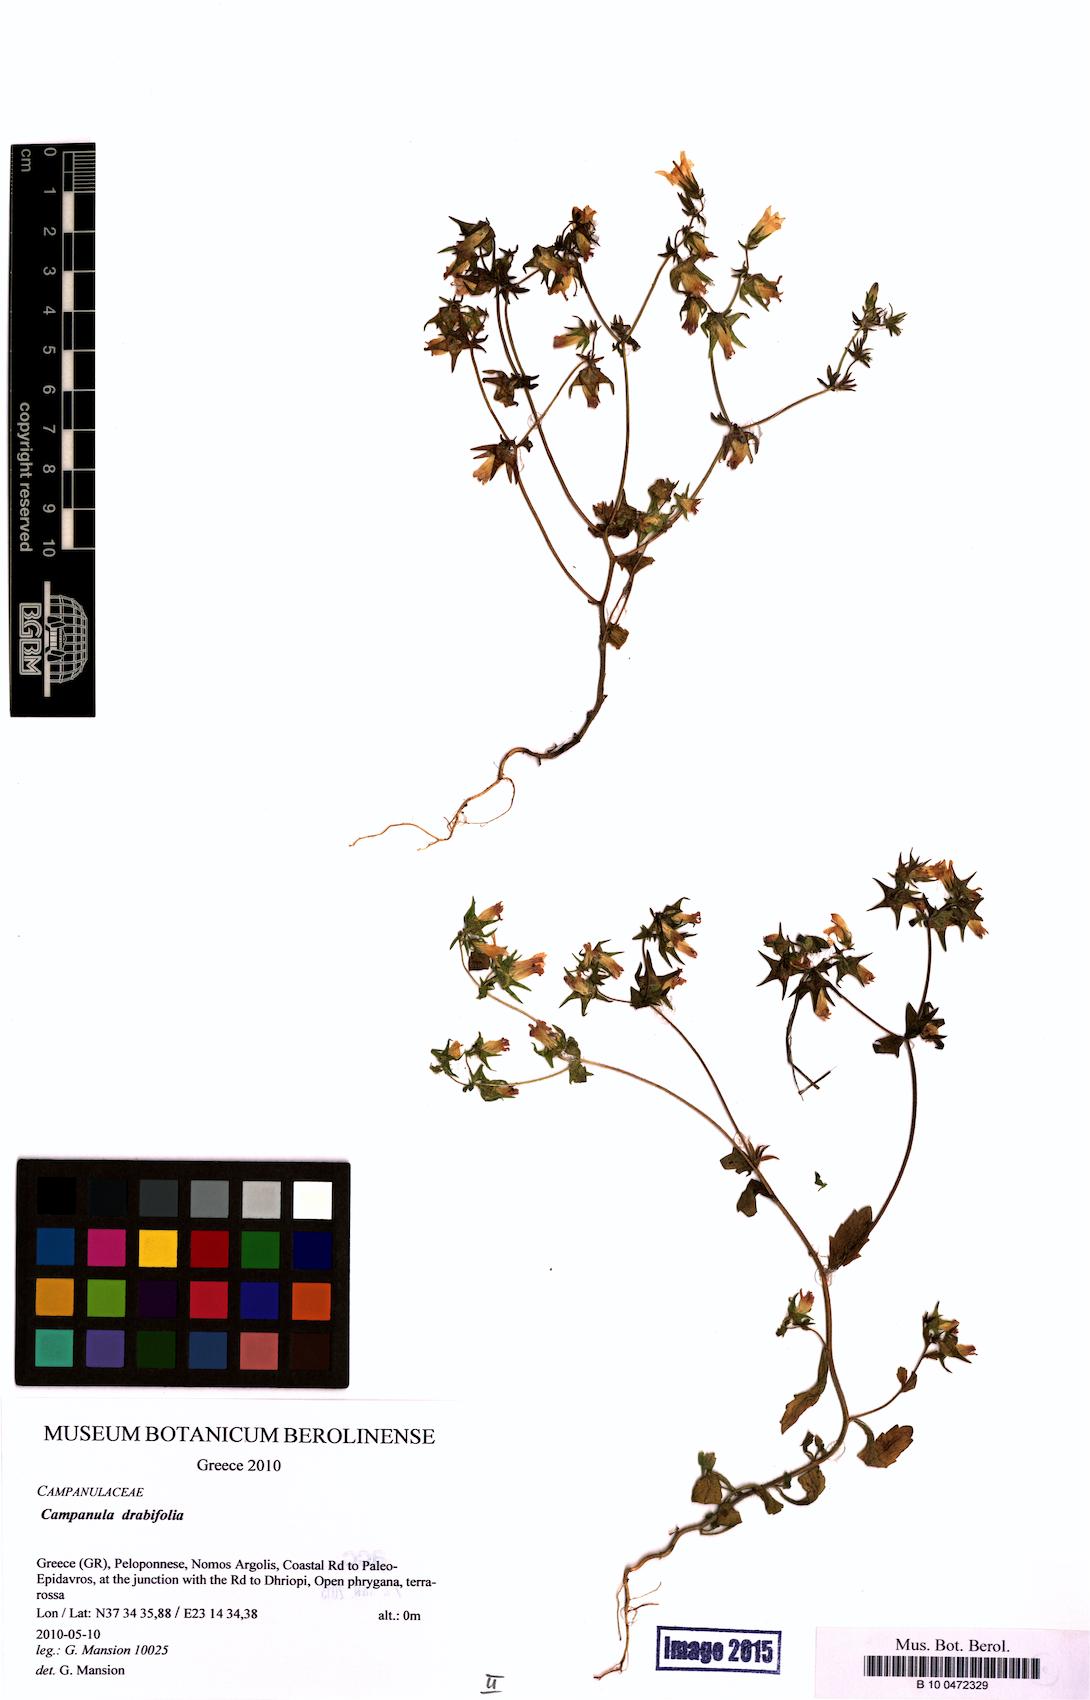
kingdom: Plantae
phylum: Tracheophyta
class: Magnoliopsida
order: Asterales
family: Campanulaceae
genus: Campanula
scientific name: Campanula drabifolia
